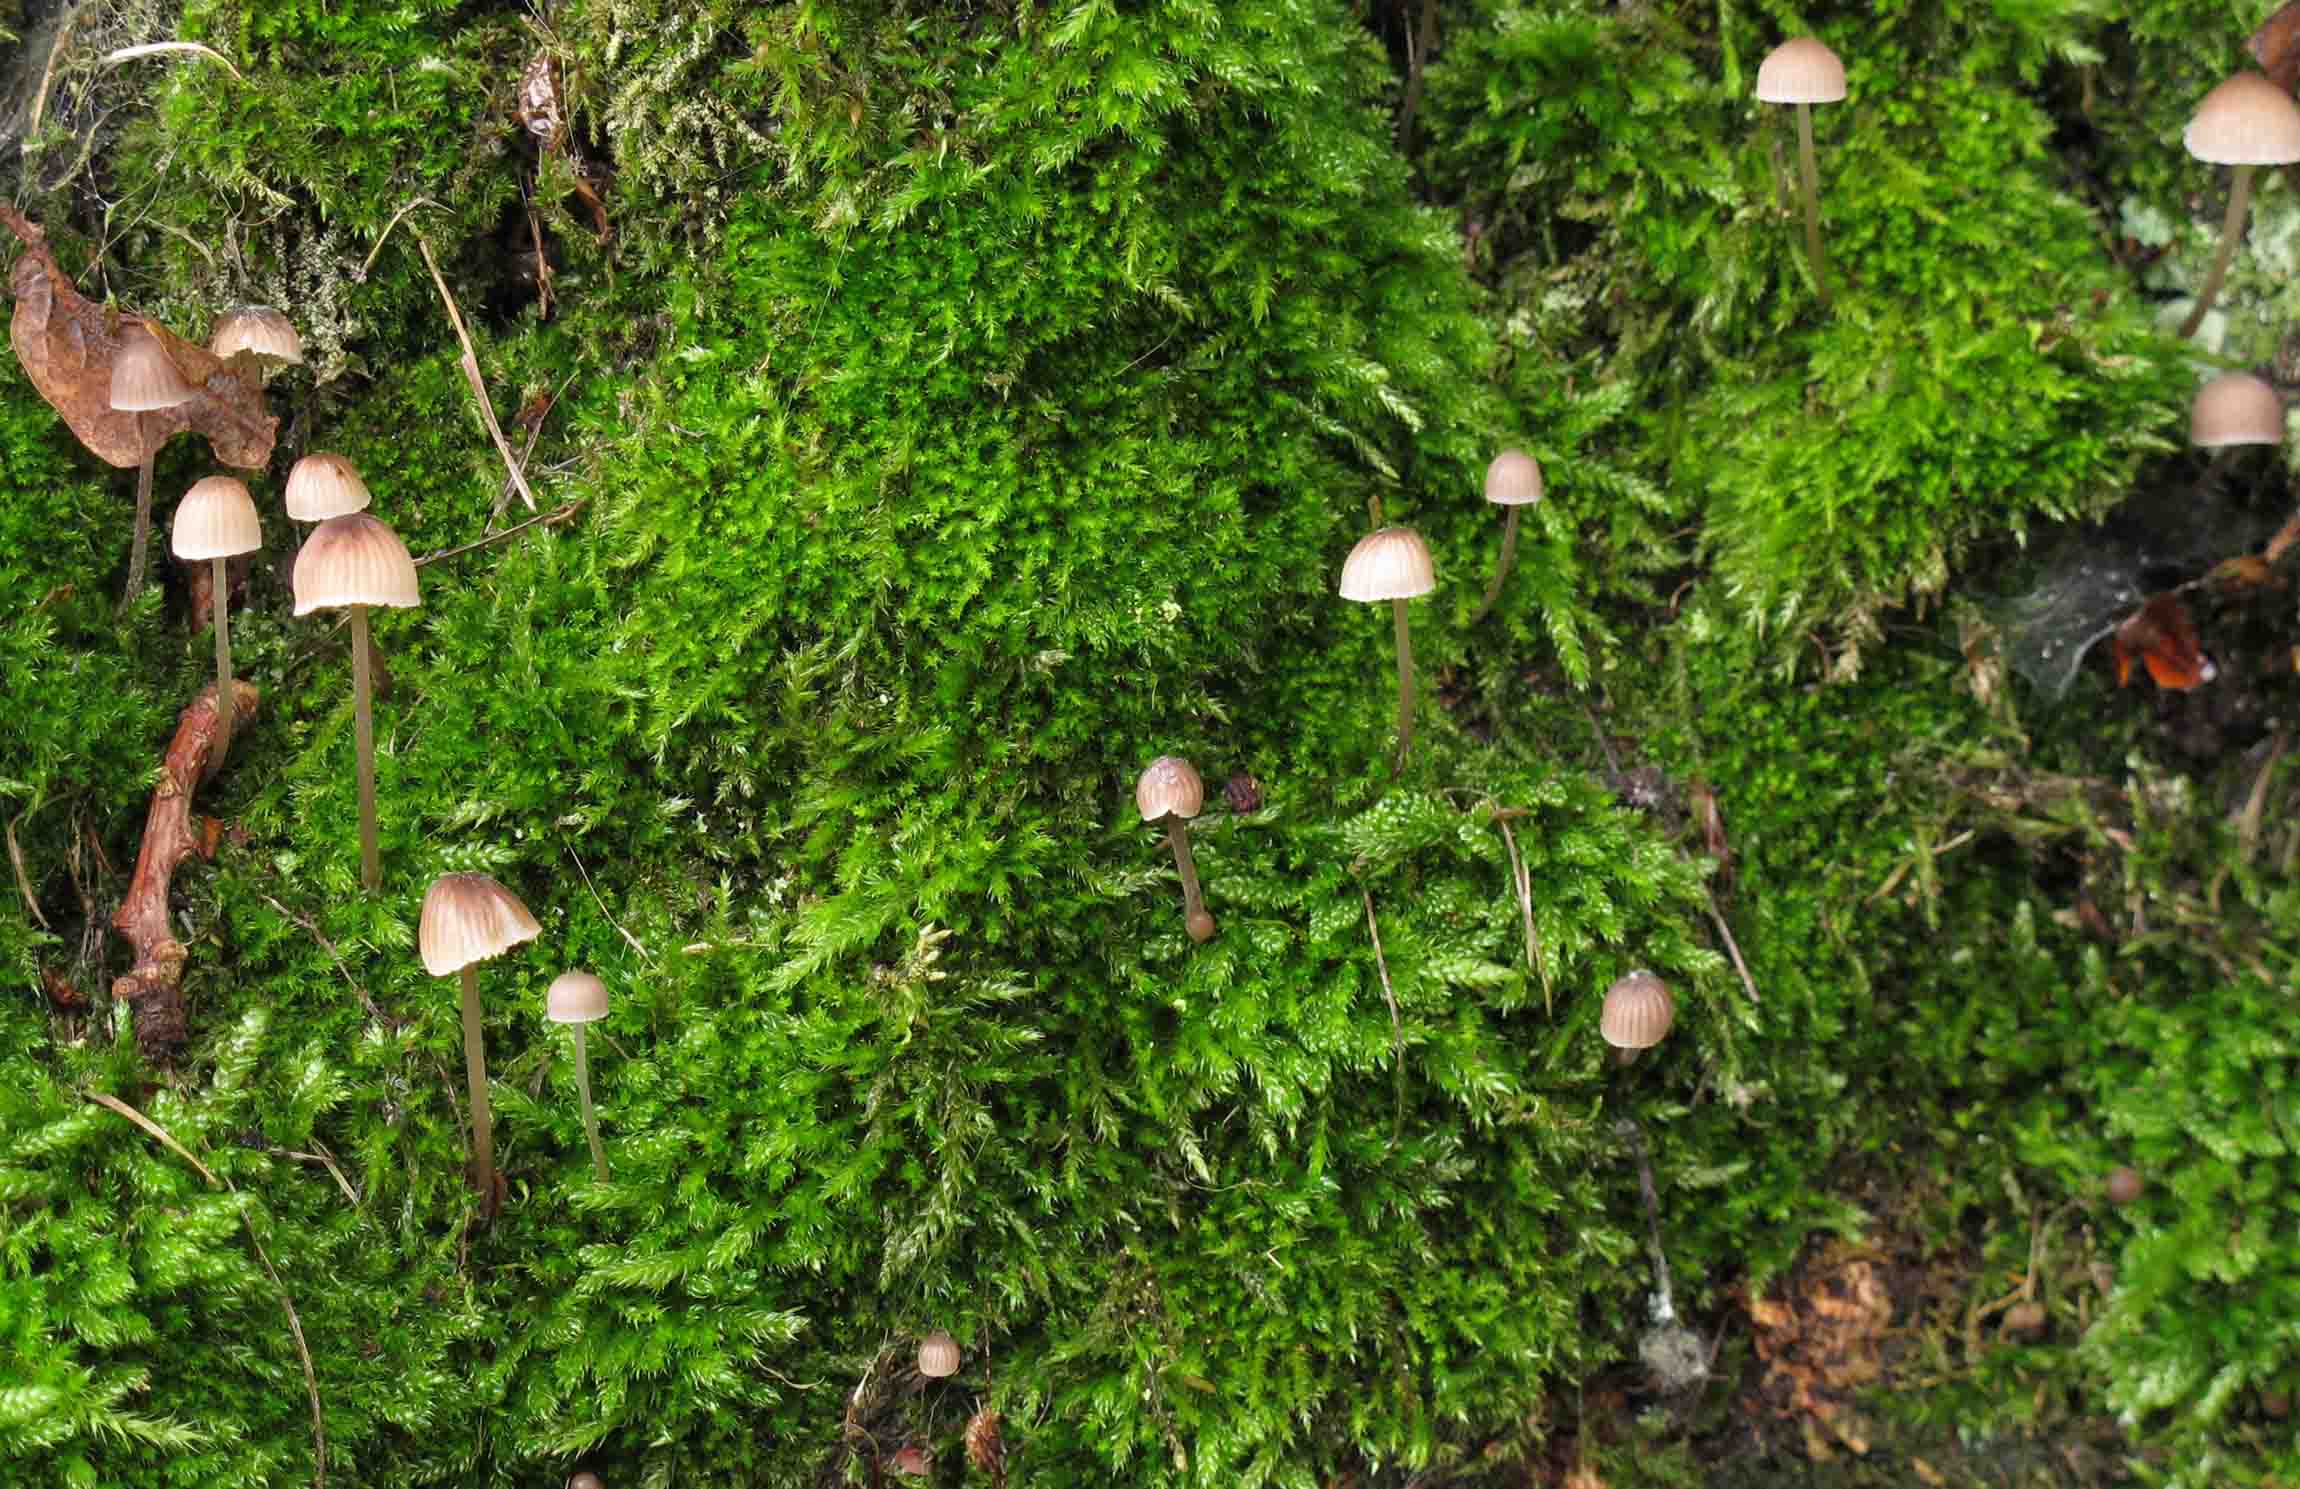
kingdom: Fungi
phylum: Basidiomycota
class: Agaricomycetes
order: Agaricales
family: Mycenaceae
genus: Mycena
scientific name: Mycena erubescens
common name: galde-huesvamp
